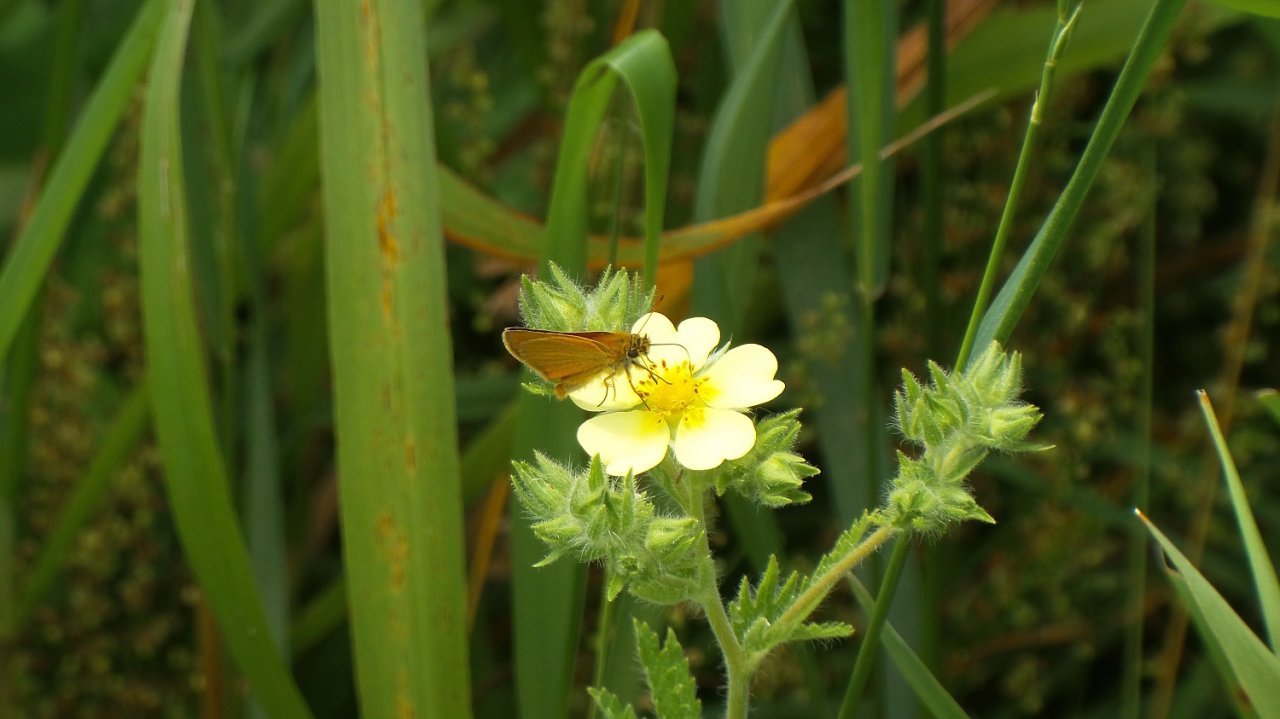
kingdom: Animalia
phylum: Arthropoda
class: Insecta
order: Lepidoptera
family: Hesperiidae
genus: Thymelicus
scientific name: Thymelicus lineola
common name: European Skipper
